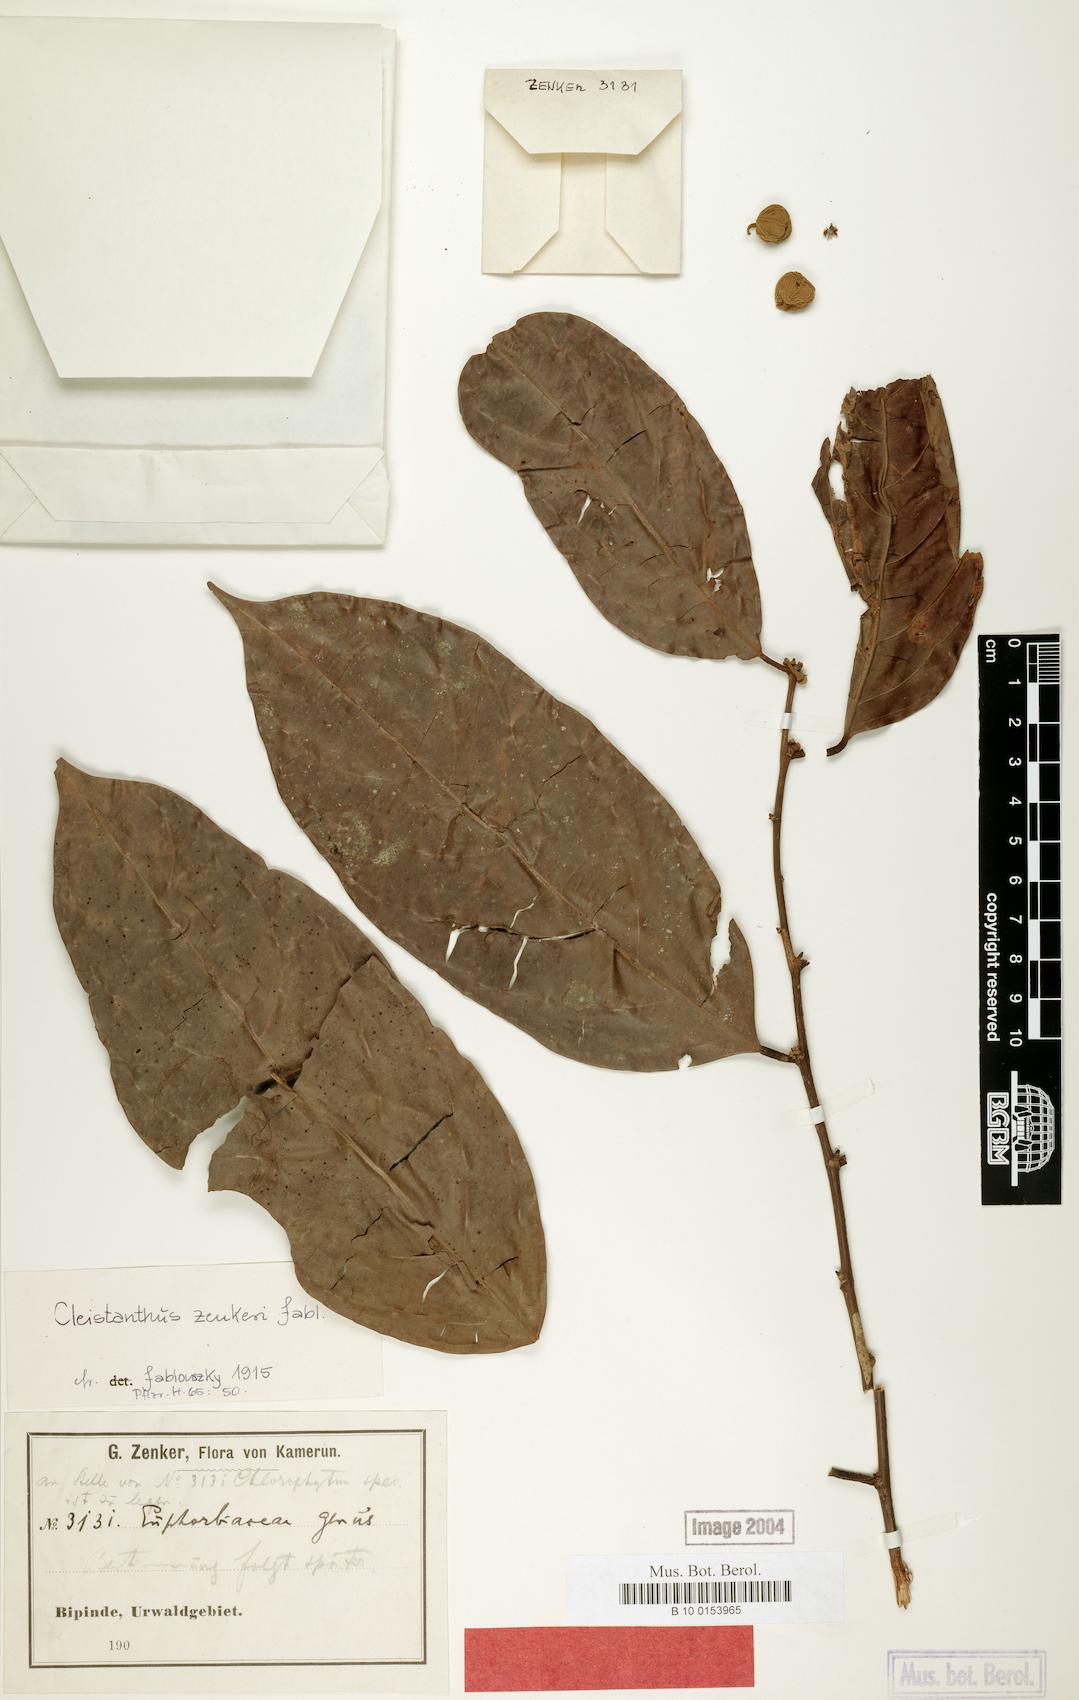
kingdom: Plantae
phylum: Tracheophyta
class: Magnoliopsida
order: Malpighiales
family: Phyllanthaceae
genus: Cleistanthus
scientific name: Cleistanthus zenkeri
